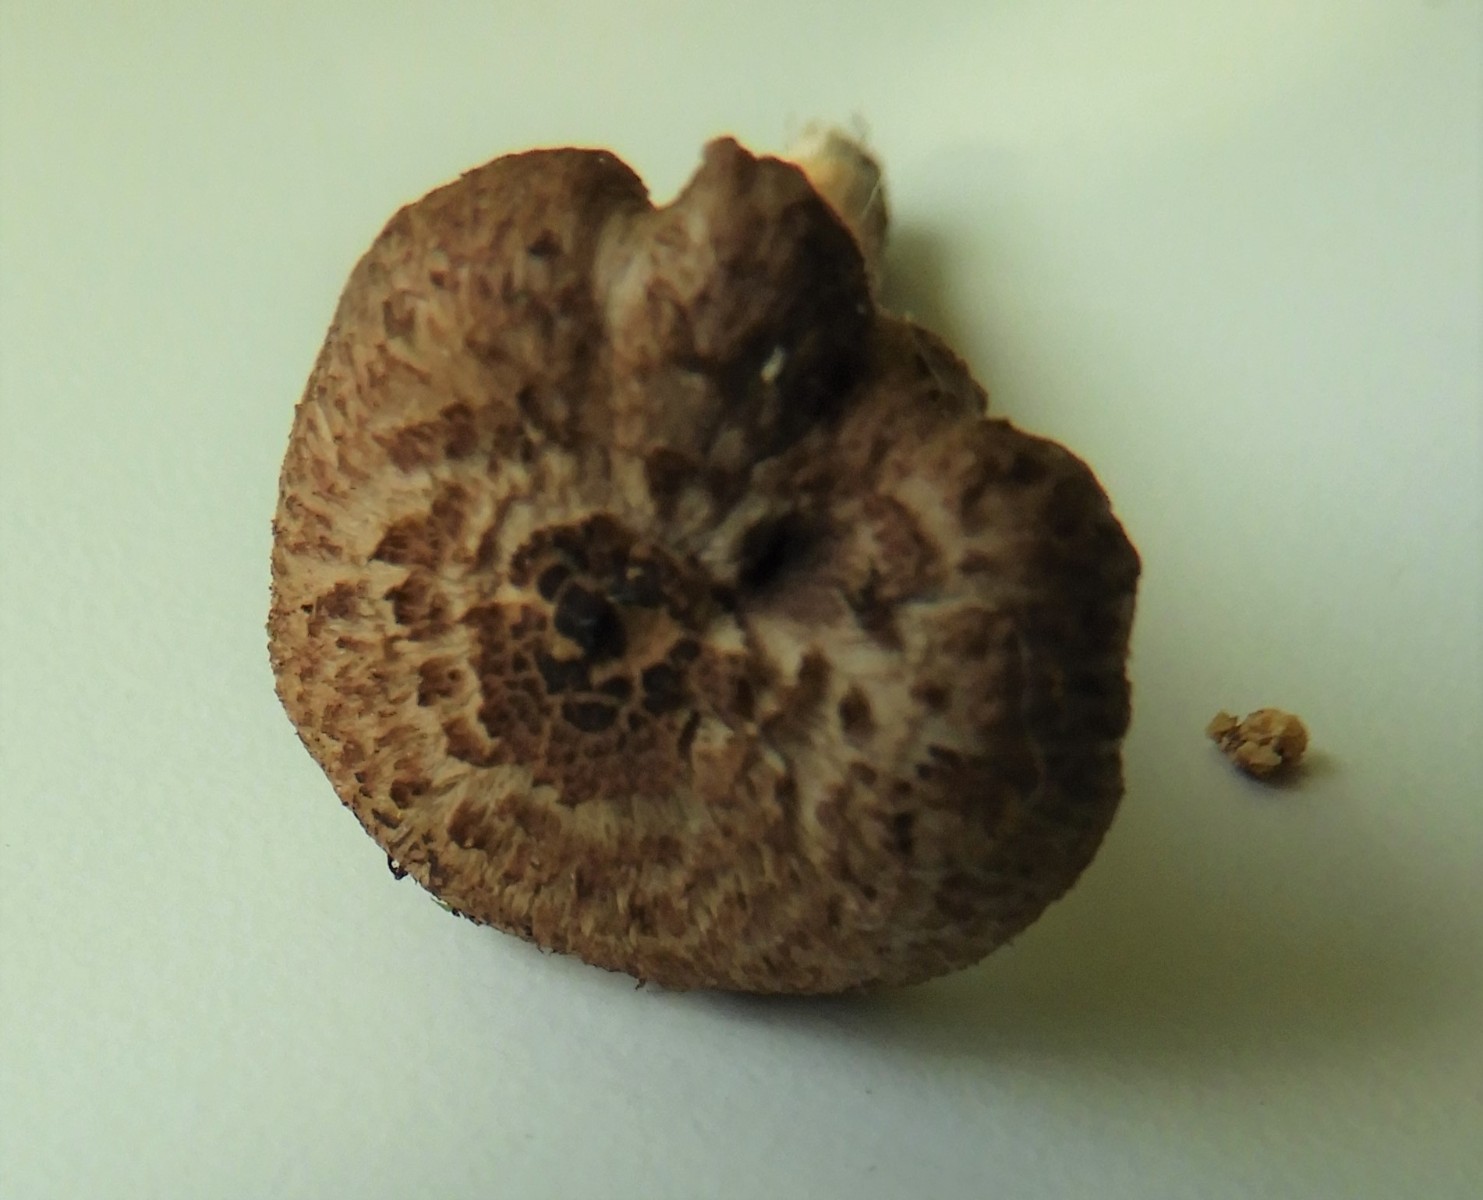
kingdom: Fungi
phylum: Basidiomycota
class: Agaricomycetes
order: Agaricales
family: Inocybaceae
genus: Inocybe
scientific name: Inocybe cincinnata
